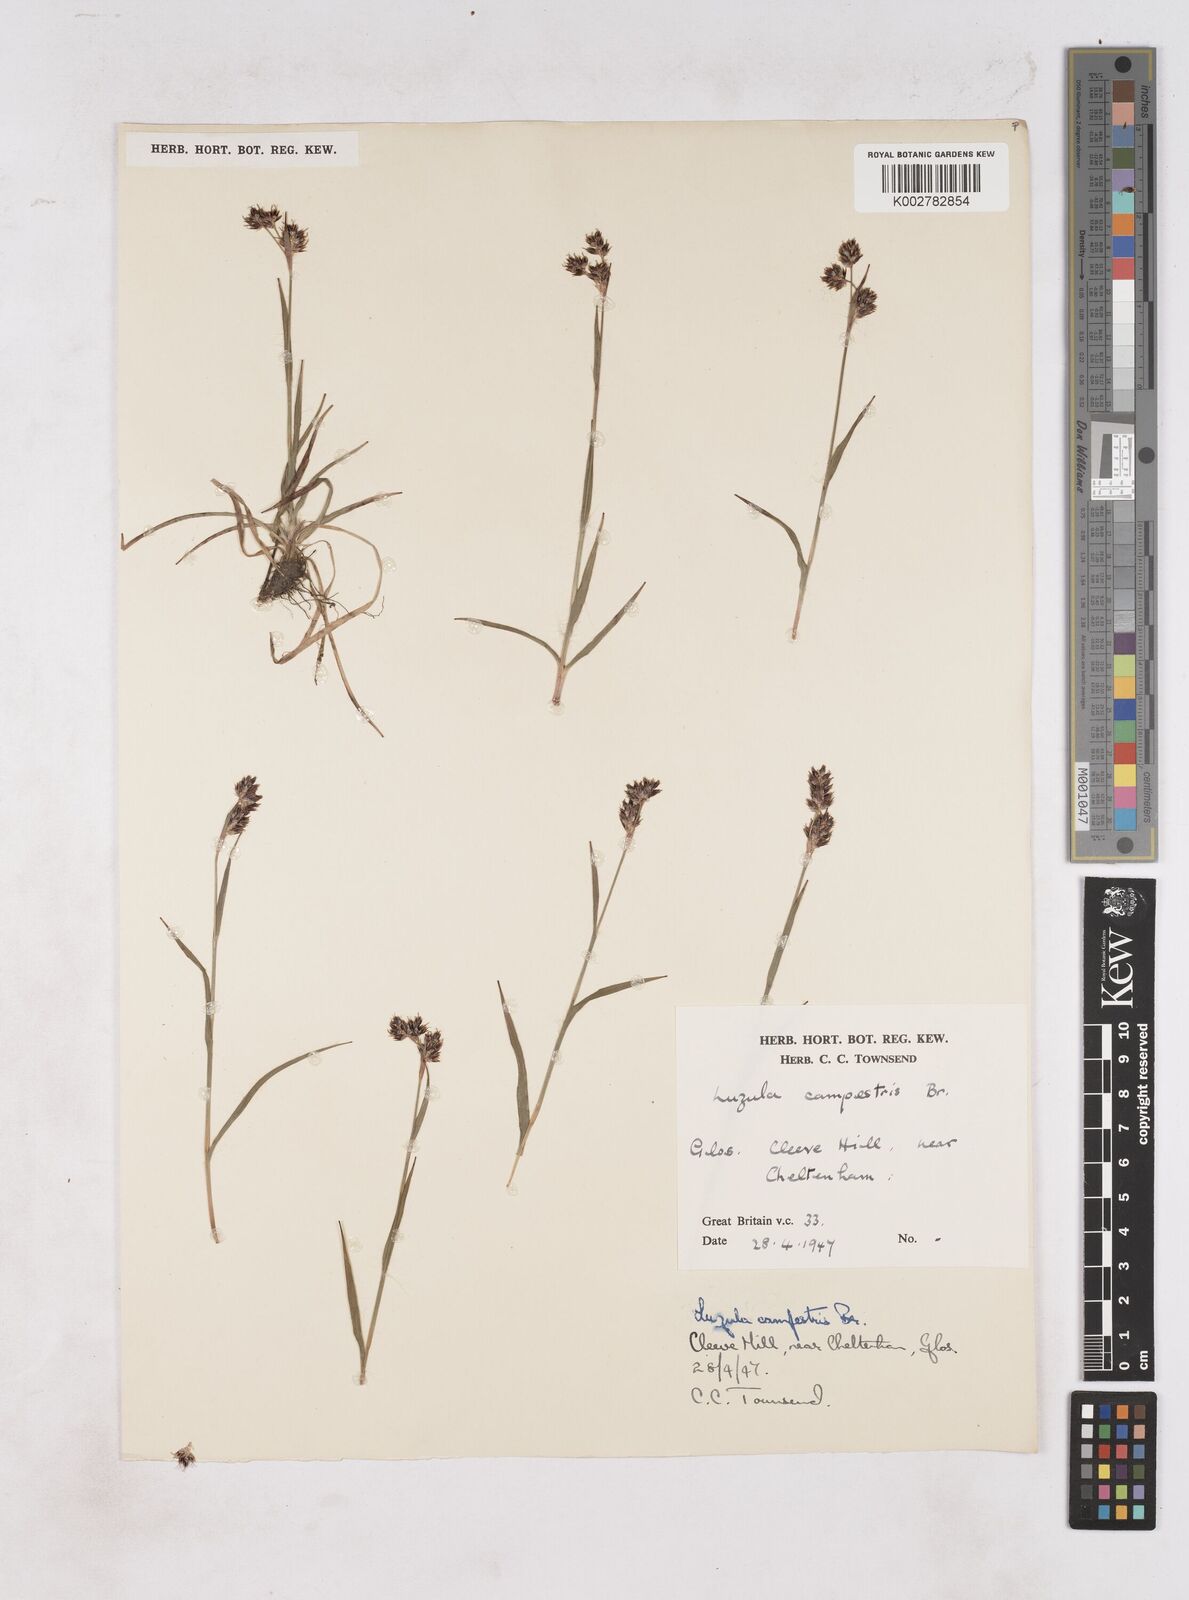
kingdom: Plantae
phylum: Tracheophyta
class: Liliopsida
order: Poales
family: Juncaceae
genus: Luzula
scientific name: Luzula campestris
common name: Field wood-rush
